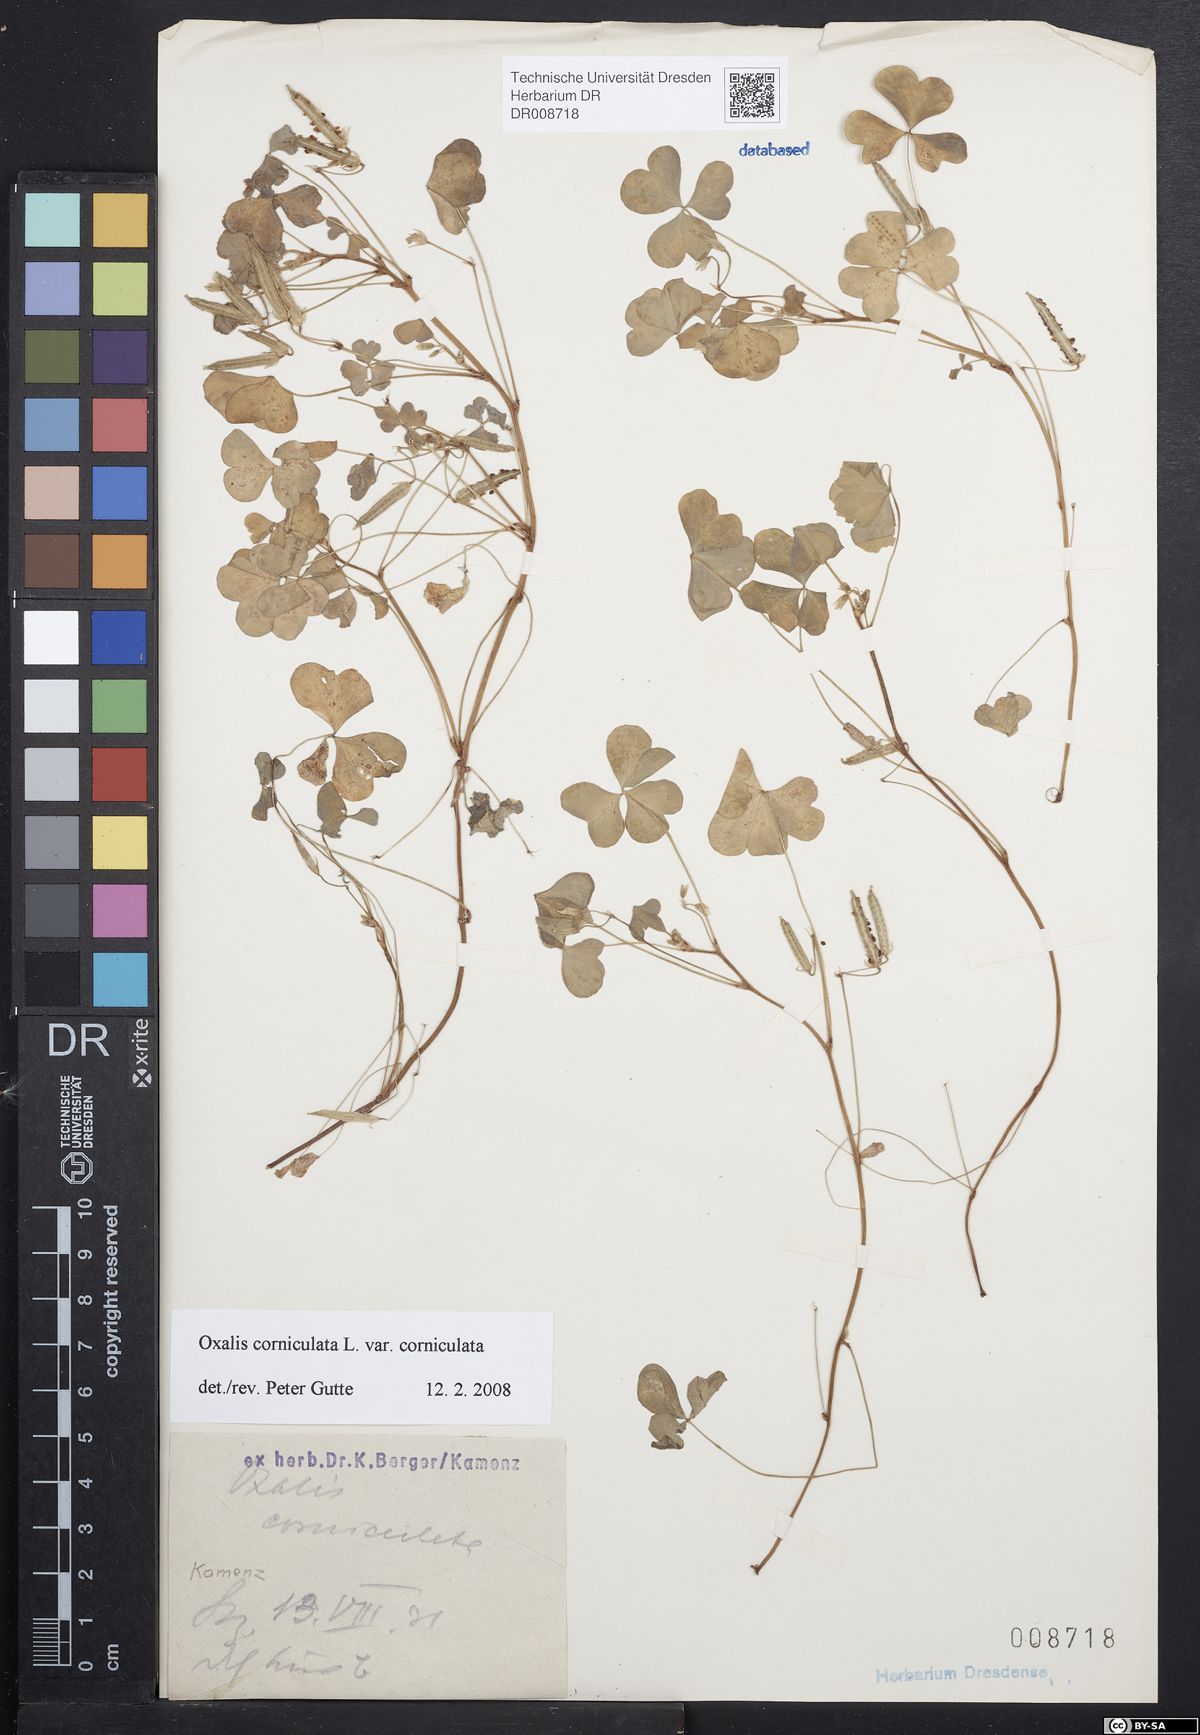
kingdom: Plantae
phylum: Tracheophyta
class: Magnoliopsida
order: Oxalidales
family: Oxalidaceae
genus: Oxalis
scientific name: Oxalis corniculata
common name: Procumbent yellow-sorrel
